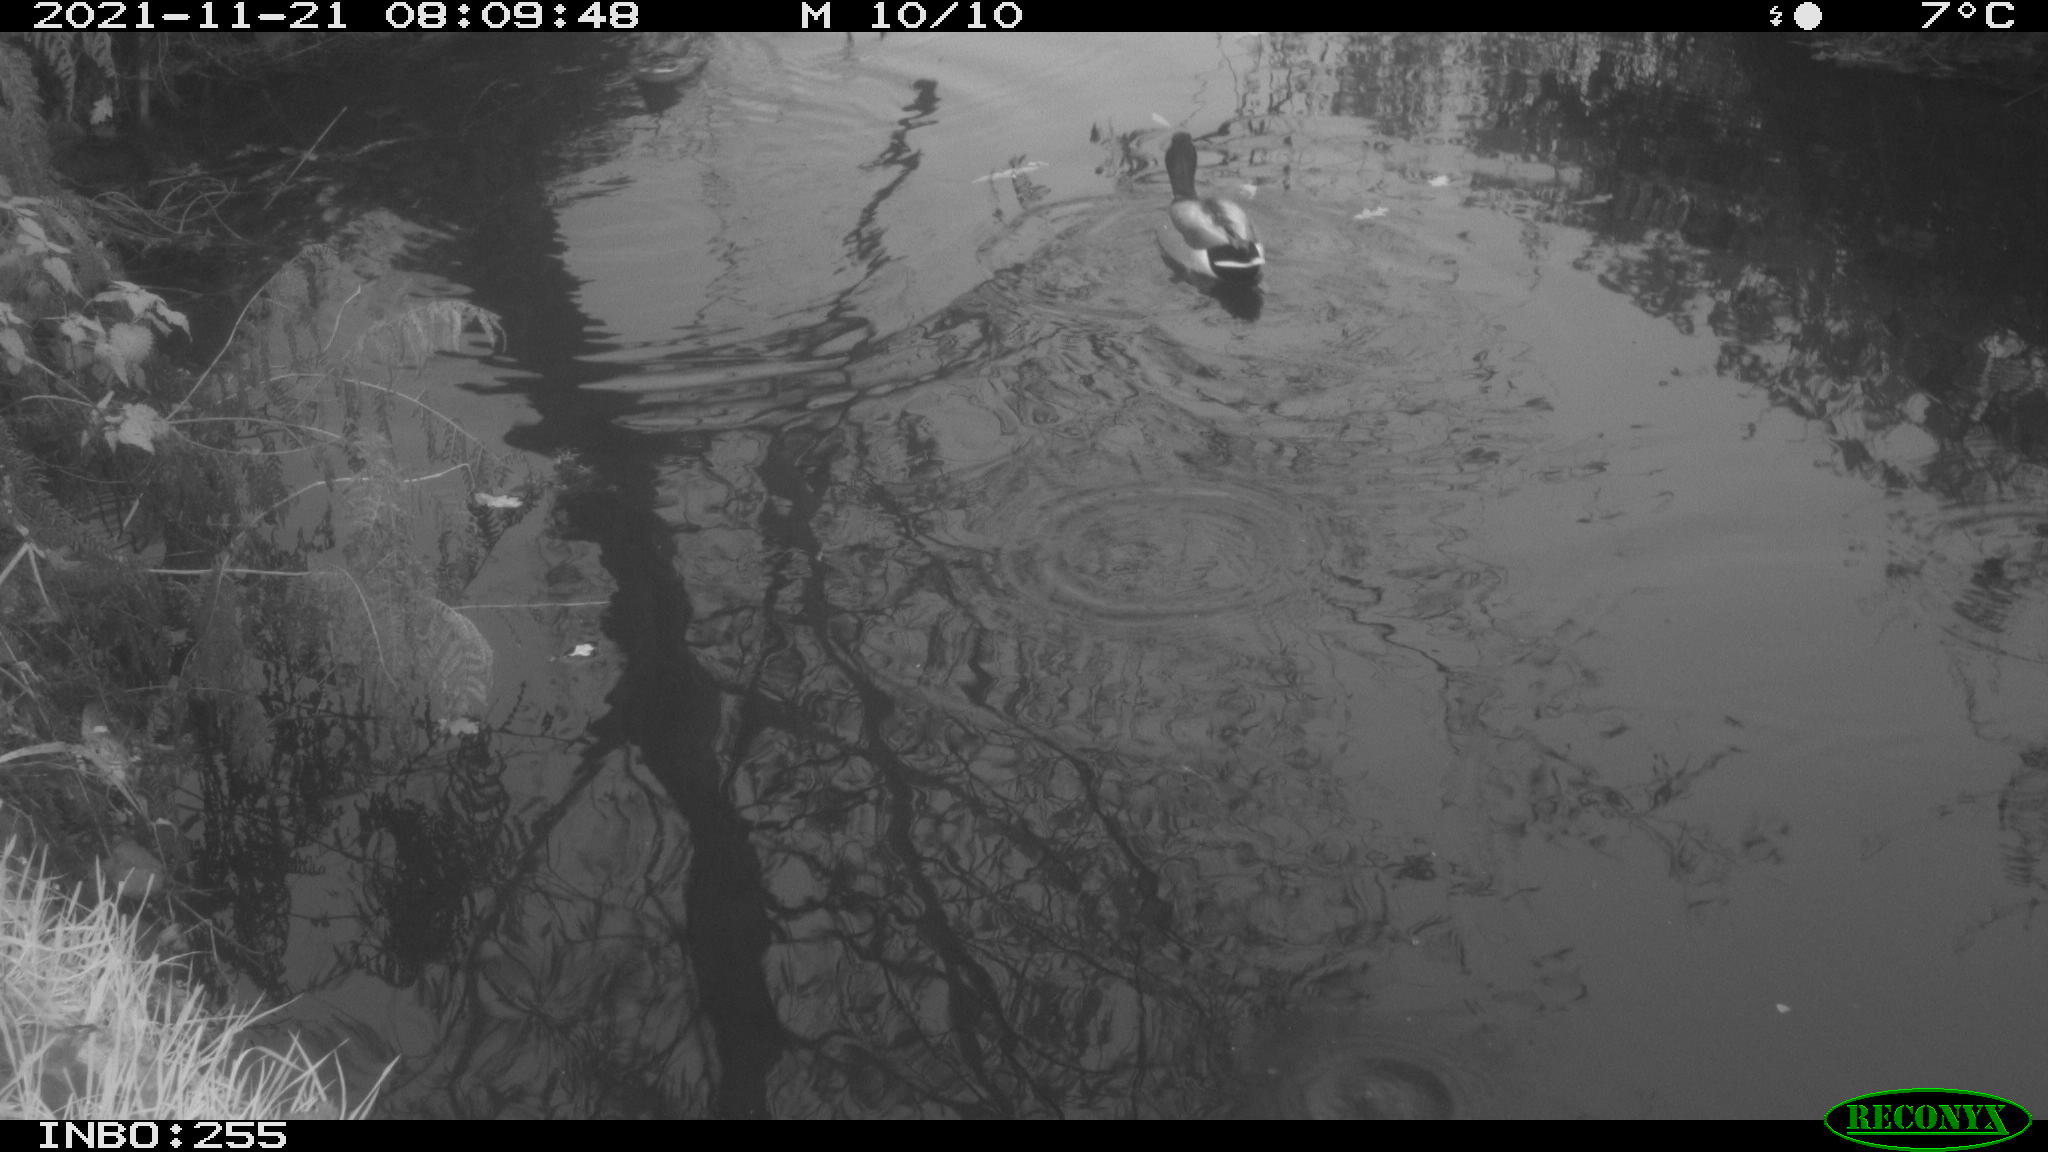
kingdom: Animalia
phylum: Chordata
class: Aves
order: Anseriformes
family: Anatidae
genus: Anas
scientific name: Anas platyrhynchos
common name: Mallard
